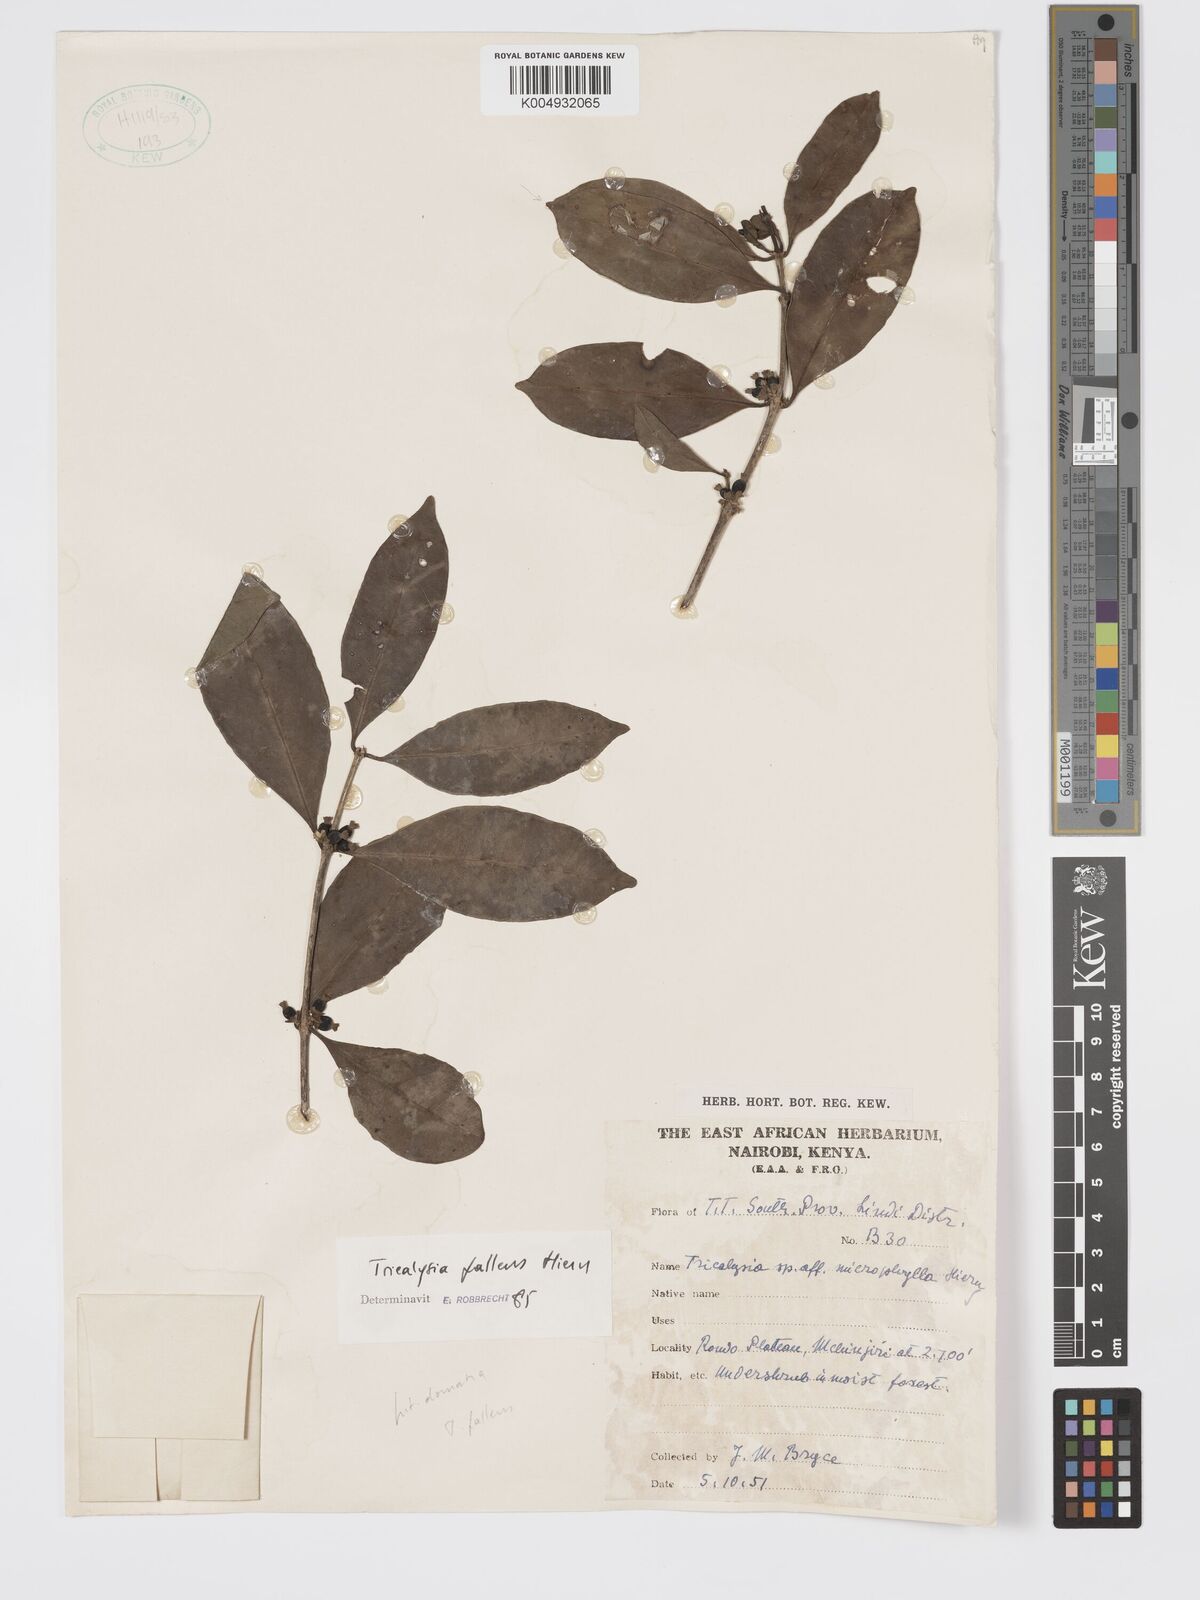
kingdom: Plantae
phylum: Tracheophyta
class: Magnoliopsida
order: Gentianales
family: Rubiaceae
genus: Tricalysia
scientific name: Tricalysia pallens
